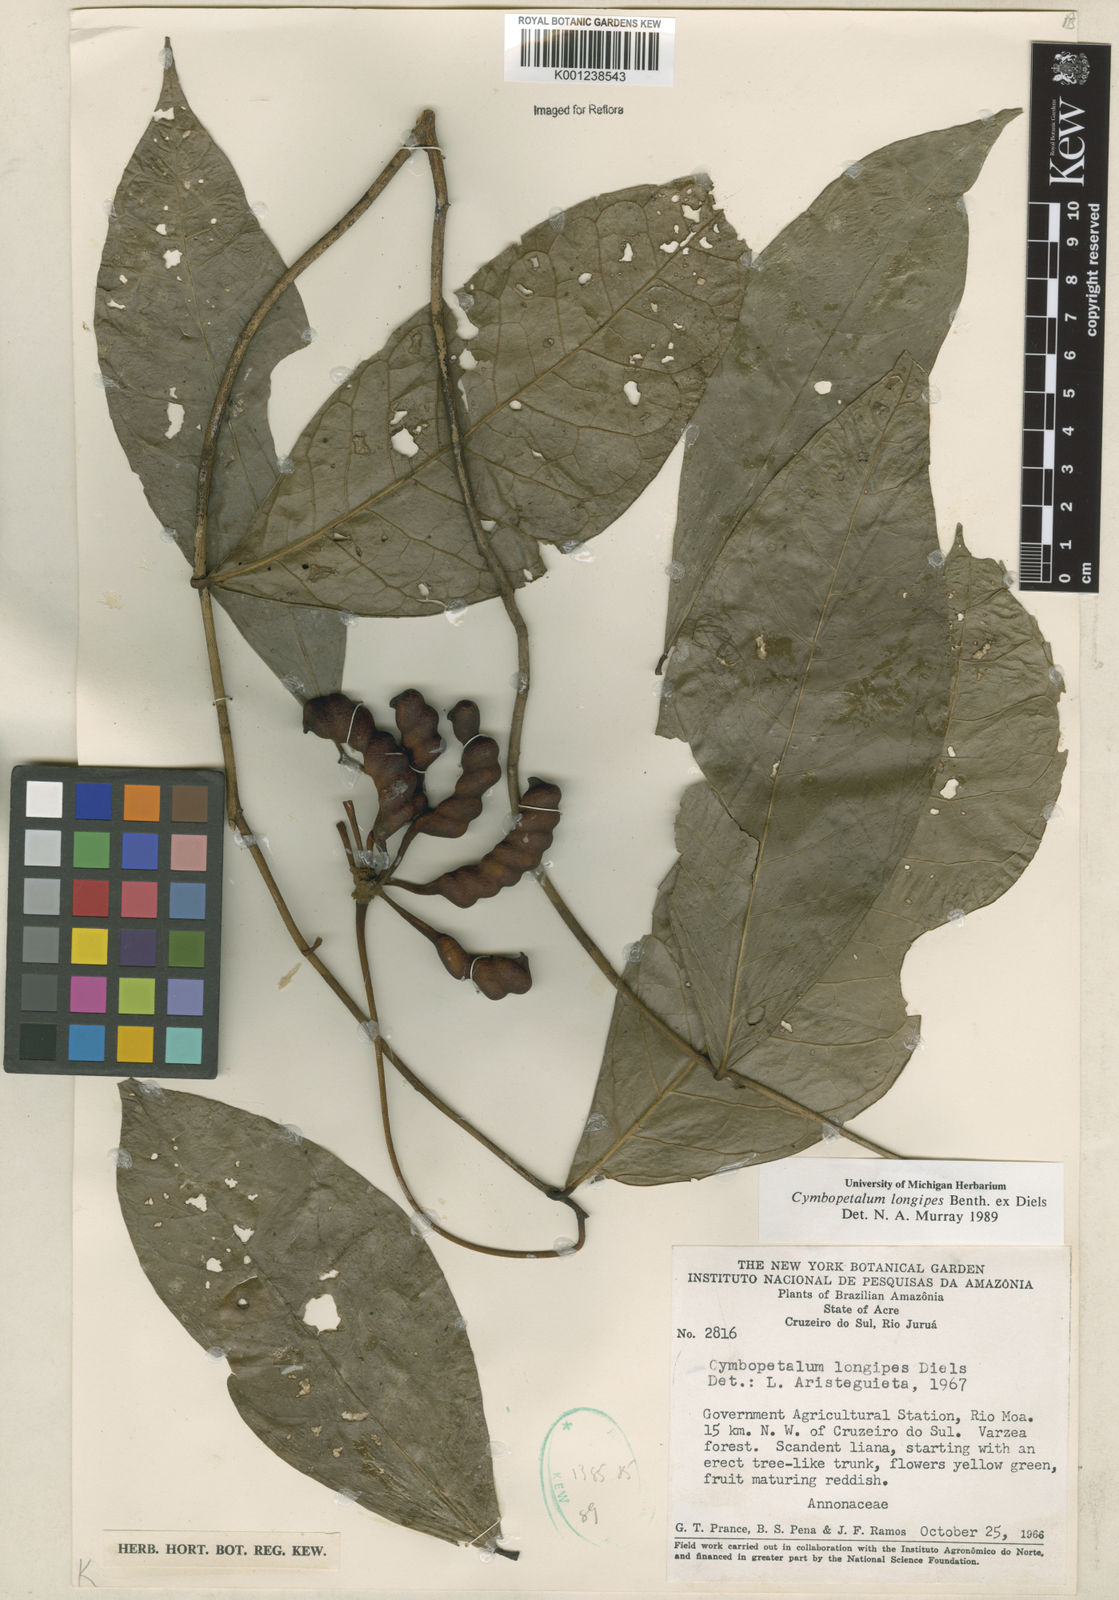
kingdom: Plantae
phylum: Tracheophyta
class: Magnoliopsida
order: Magnoliales
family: Annonaceae
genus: Cymbopetalum
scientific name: Cymbopetalum longipes
